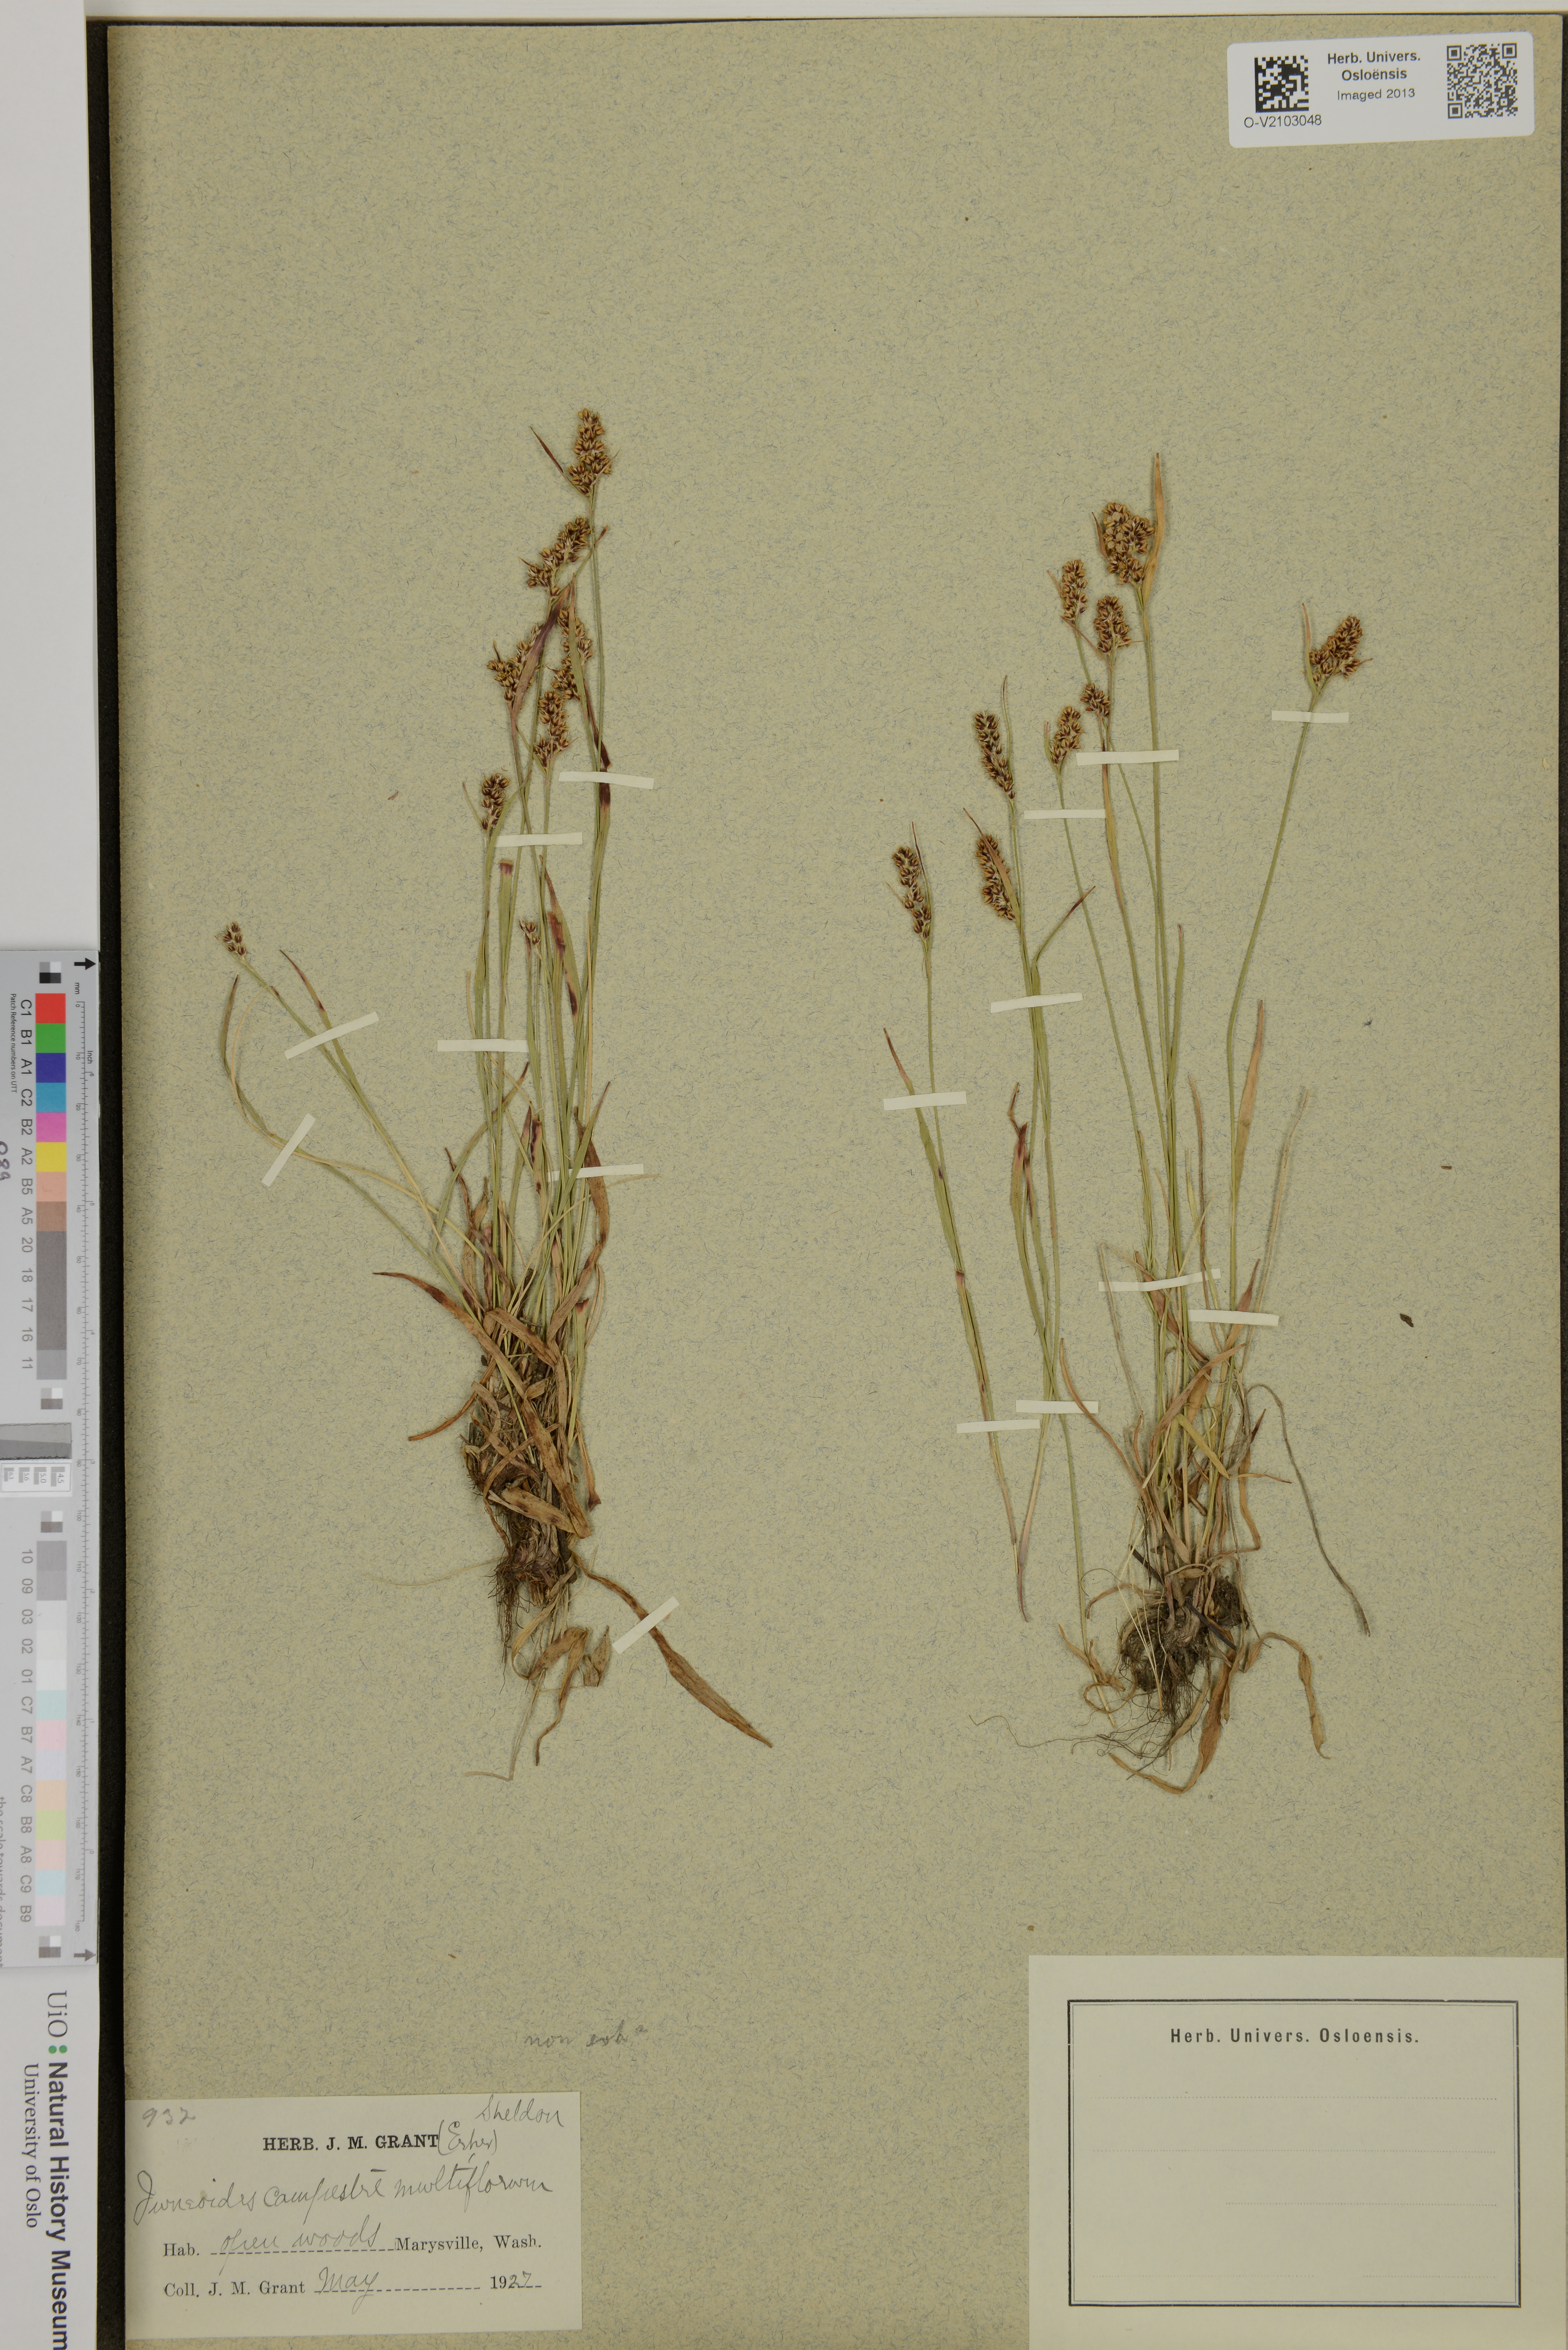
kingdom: Plantae
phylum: Tracheophyta
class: Liliopsida
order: Poales
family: Juncaceae
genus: Luzula
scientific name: Luzula campestris
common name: Field wood-rush
